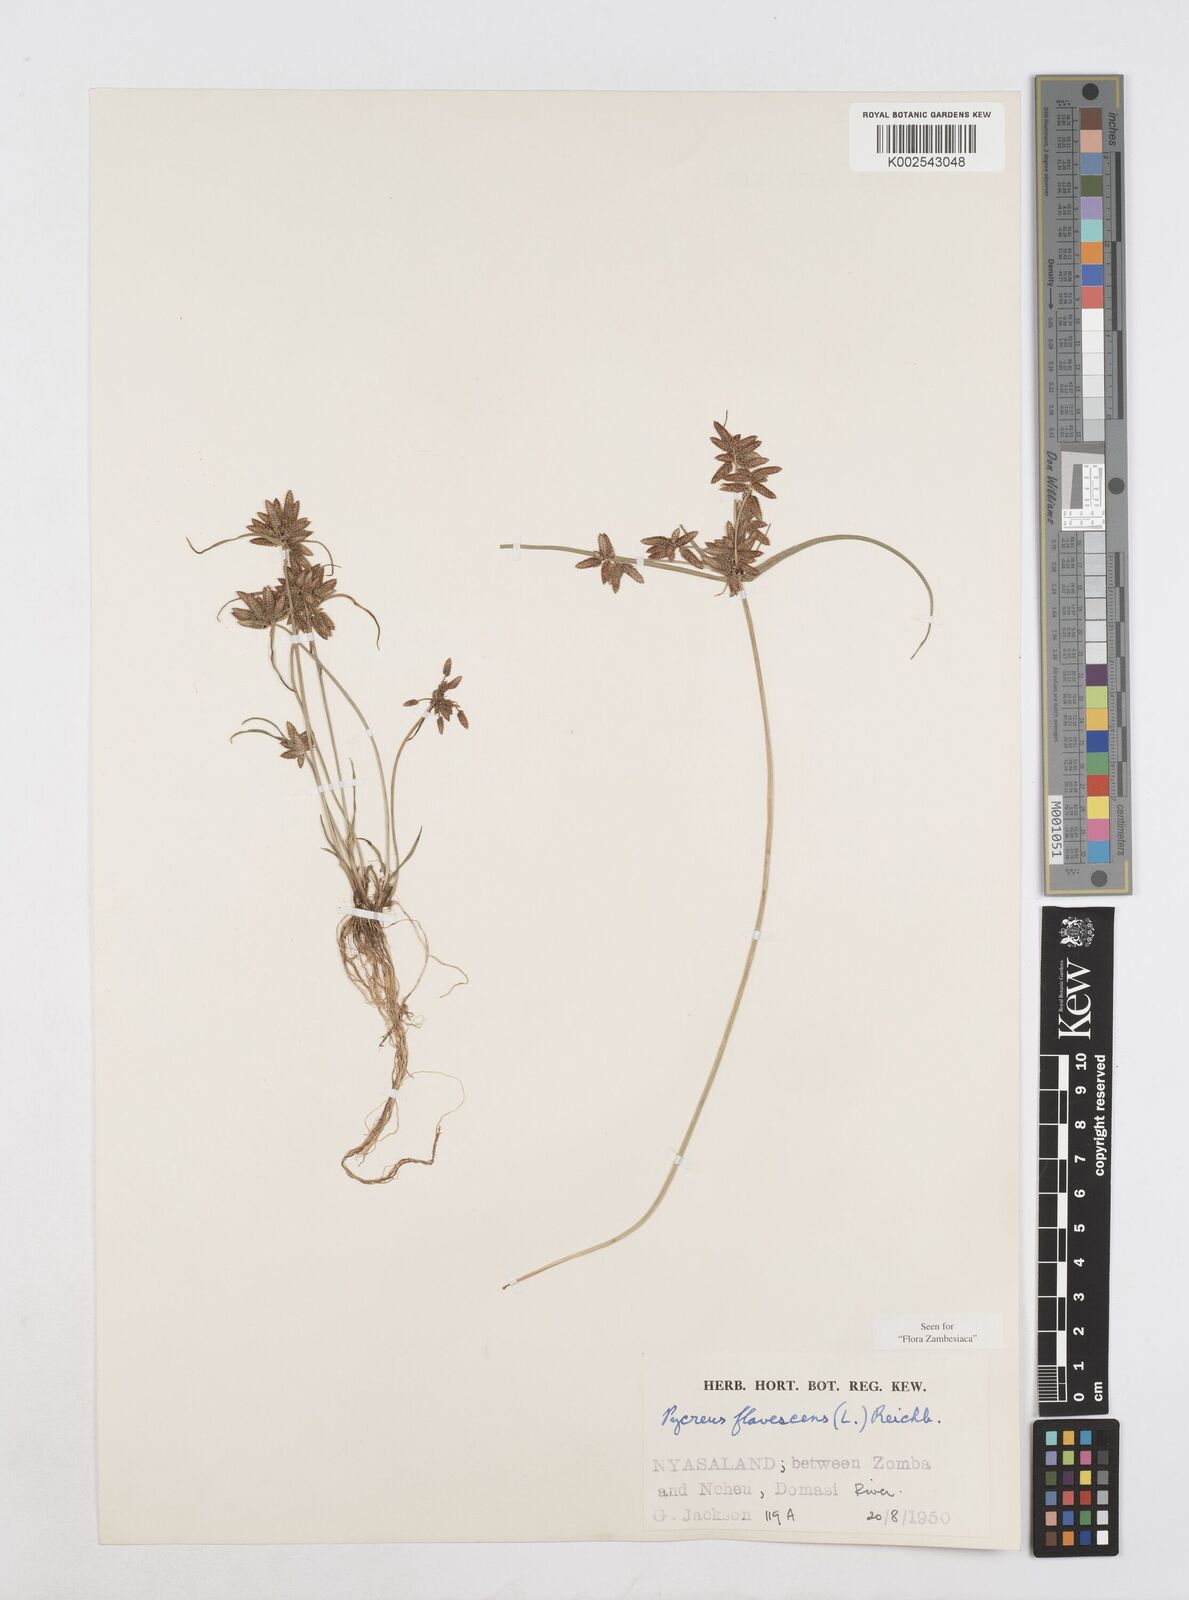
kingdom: Plantae
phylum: Tracheophyta
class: Liliopsida
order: Poales
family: Cyperaceae
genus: Cyperus
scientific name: Cyperus flavescens
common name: Yellow galingale
